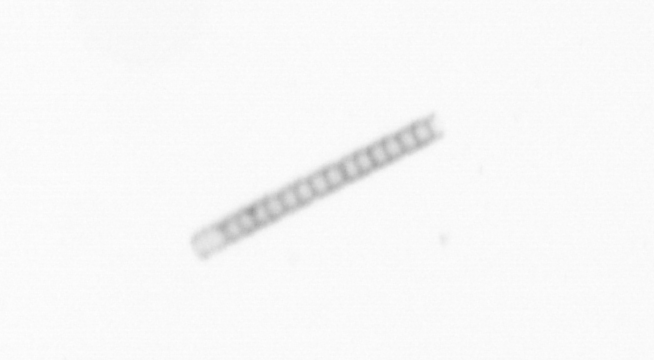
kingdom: Chromista
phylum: Ochrophyta
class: Bacillariophyceae
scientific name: Bacillariophyceae
